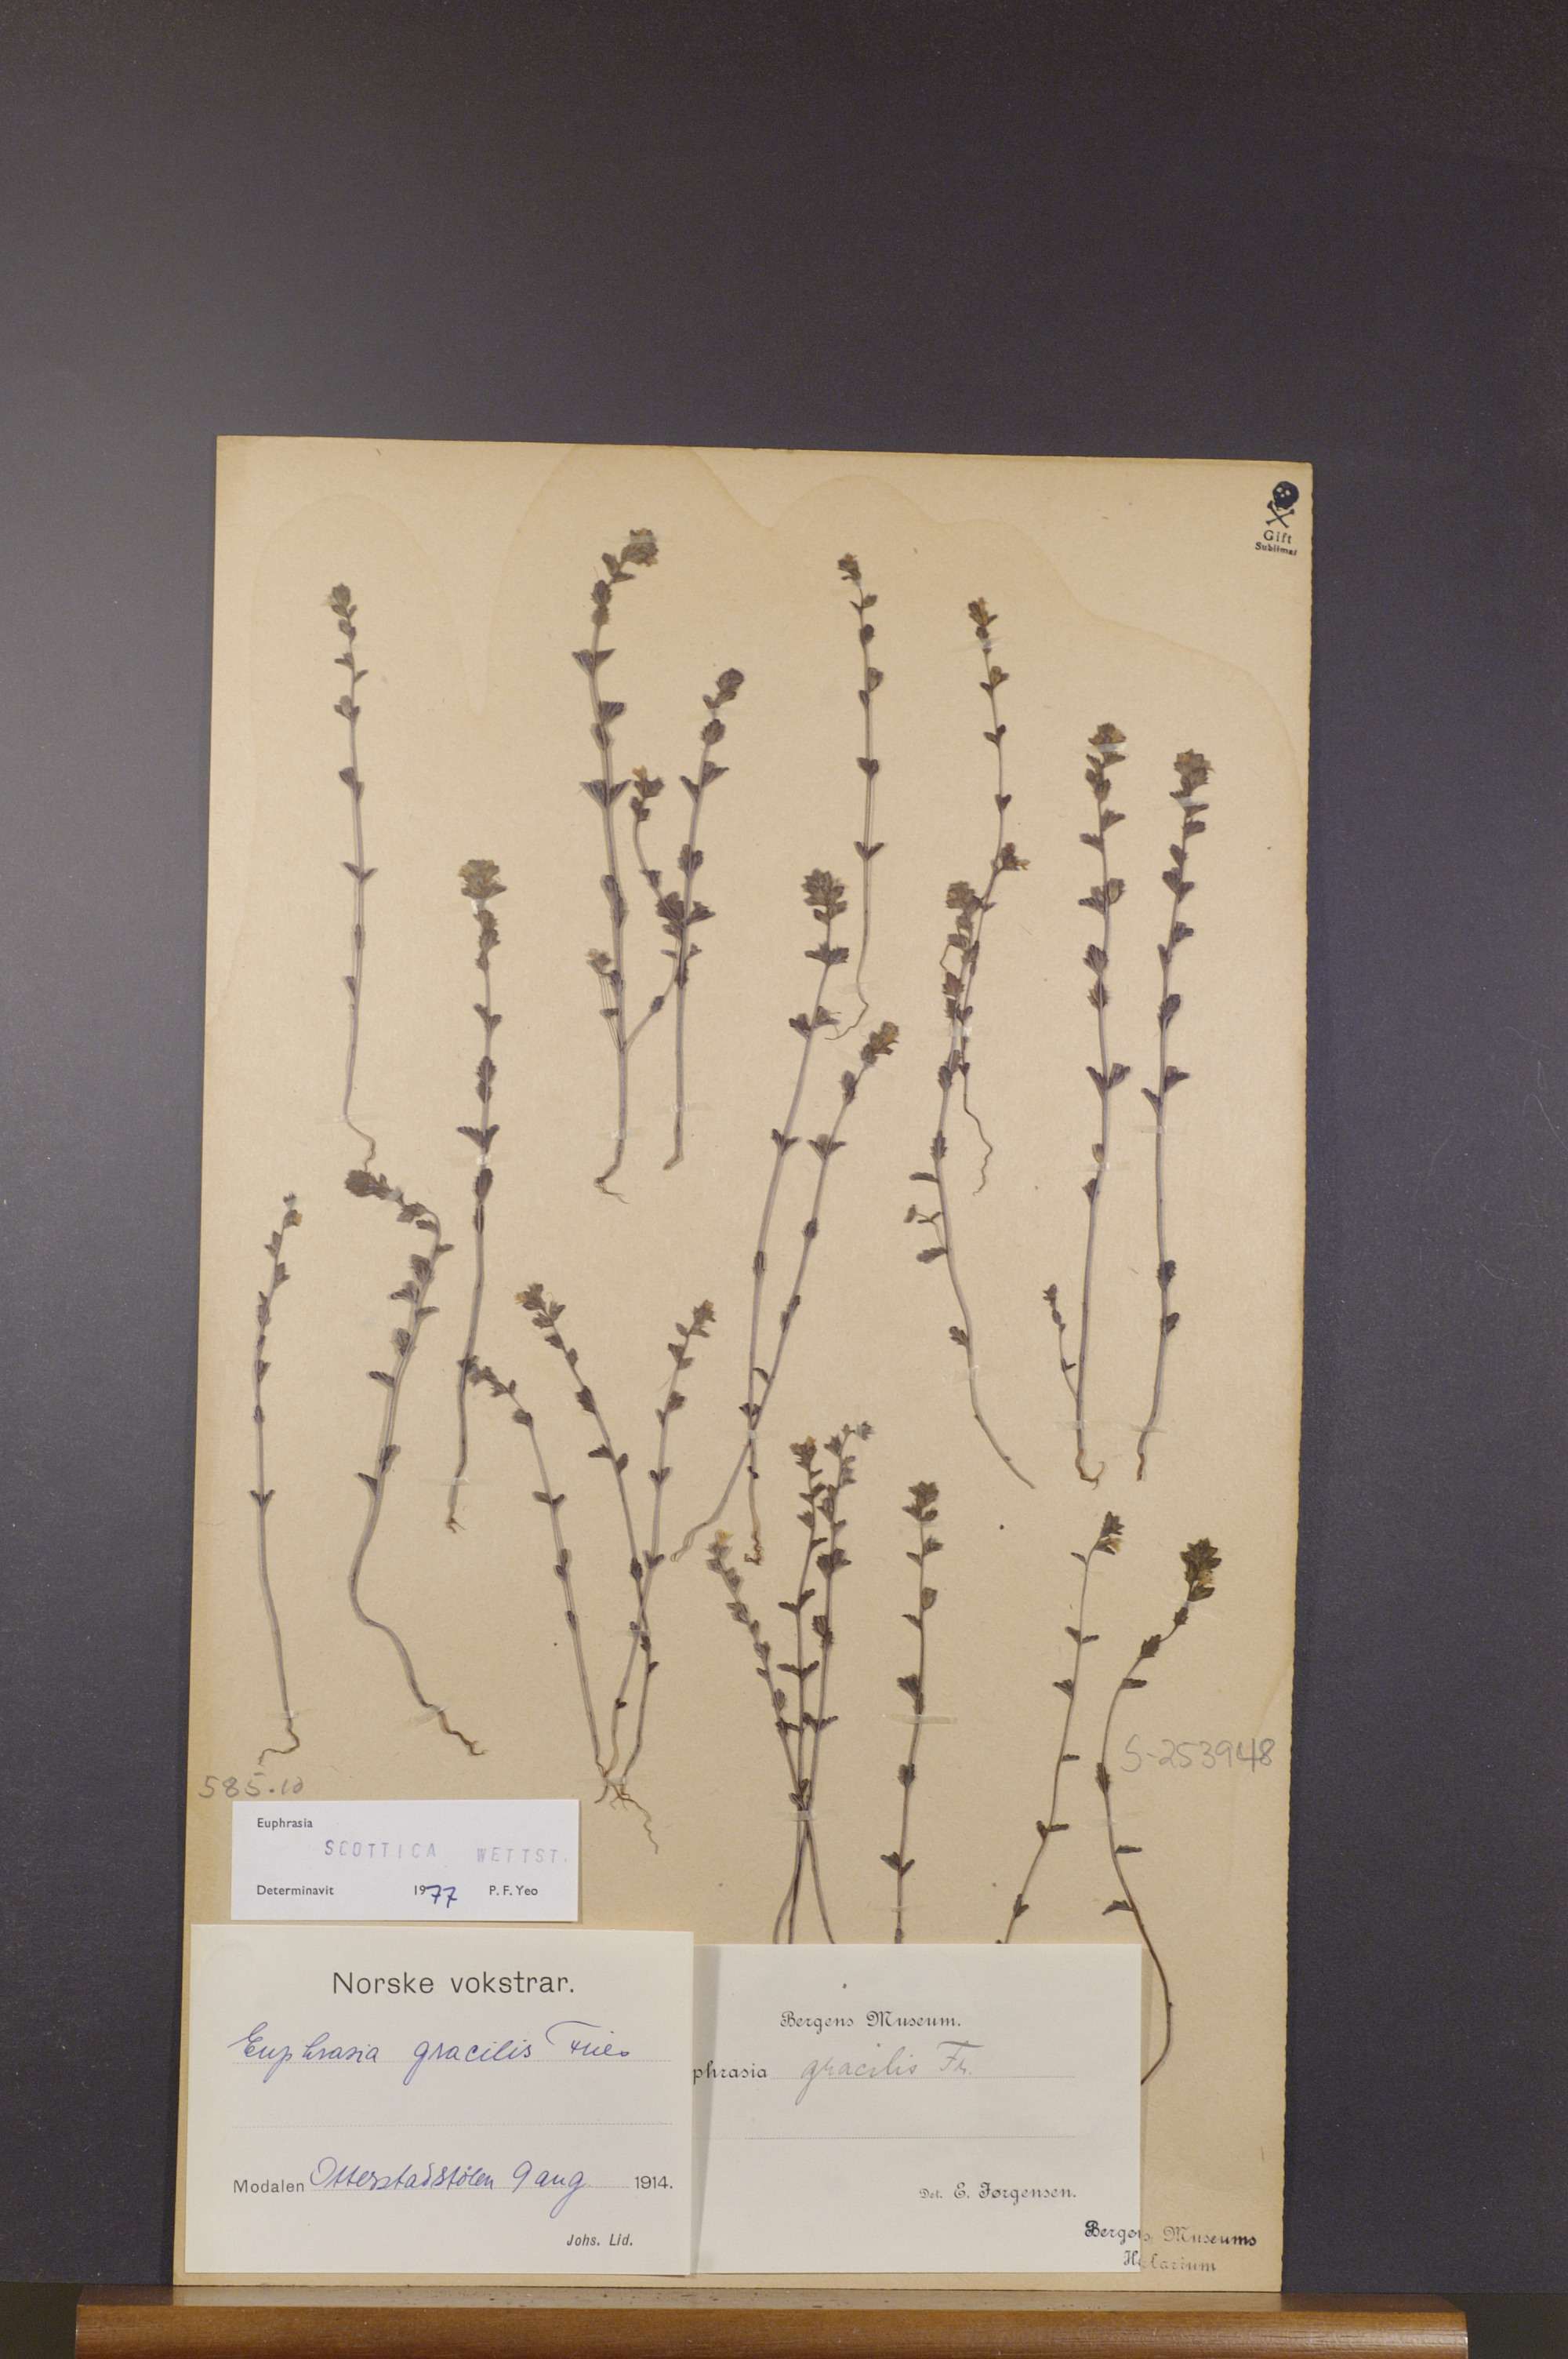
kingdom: Plantae
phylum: Tracheophyta
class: Magnoliopsida
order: Lamiales
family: Orobanchaceae
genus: Euphrasia
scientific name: Euphrasia scottica
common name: Slender scottish eyebright
